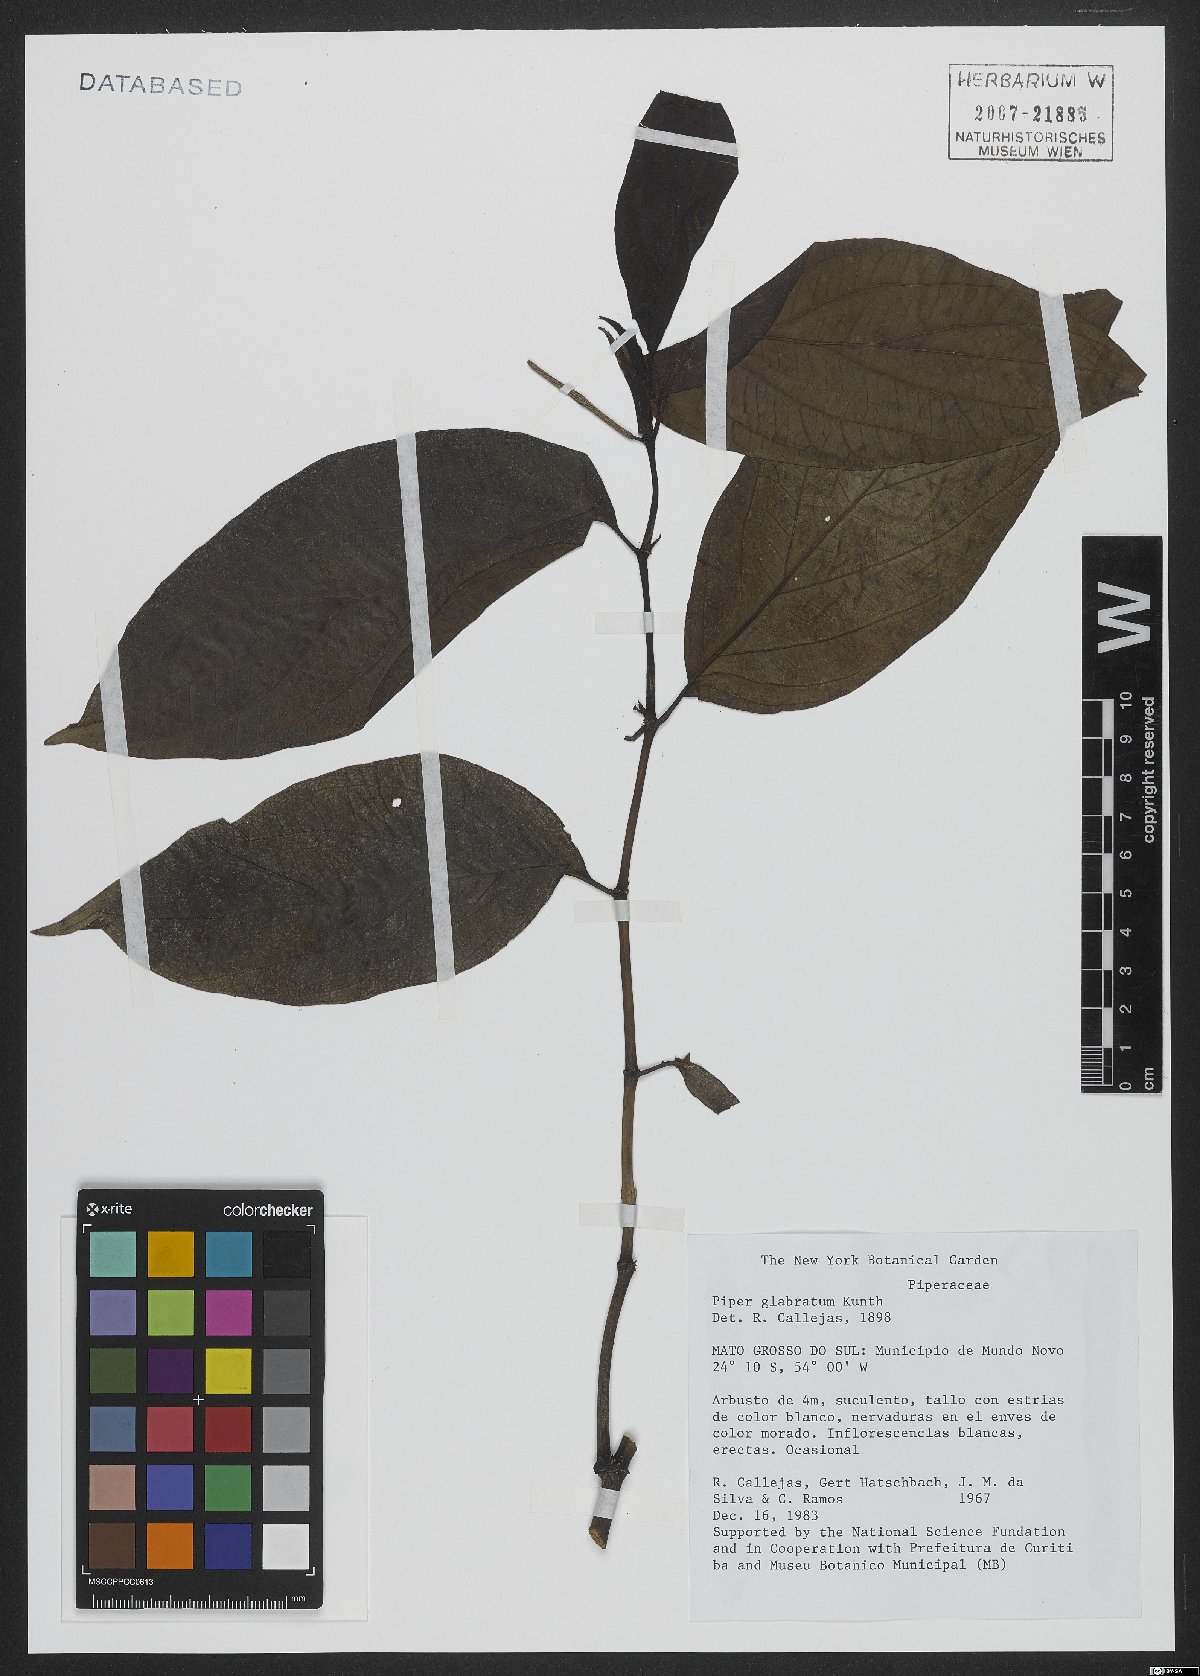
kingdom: Plantae
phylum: Tracheophyta
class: Magnoliopsida
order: Piperales
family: Piperaceae
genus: Piper
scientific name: Piper glabratum
